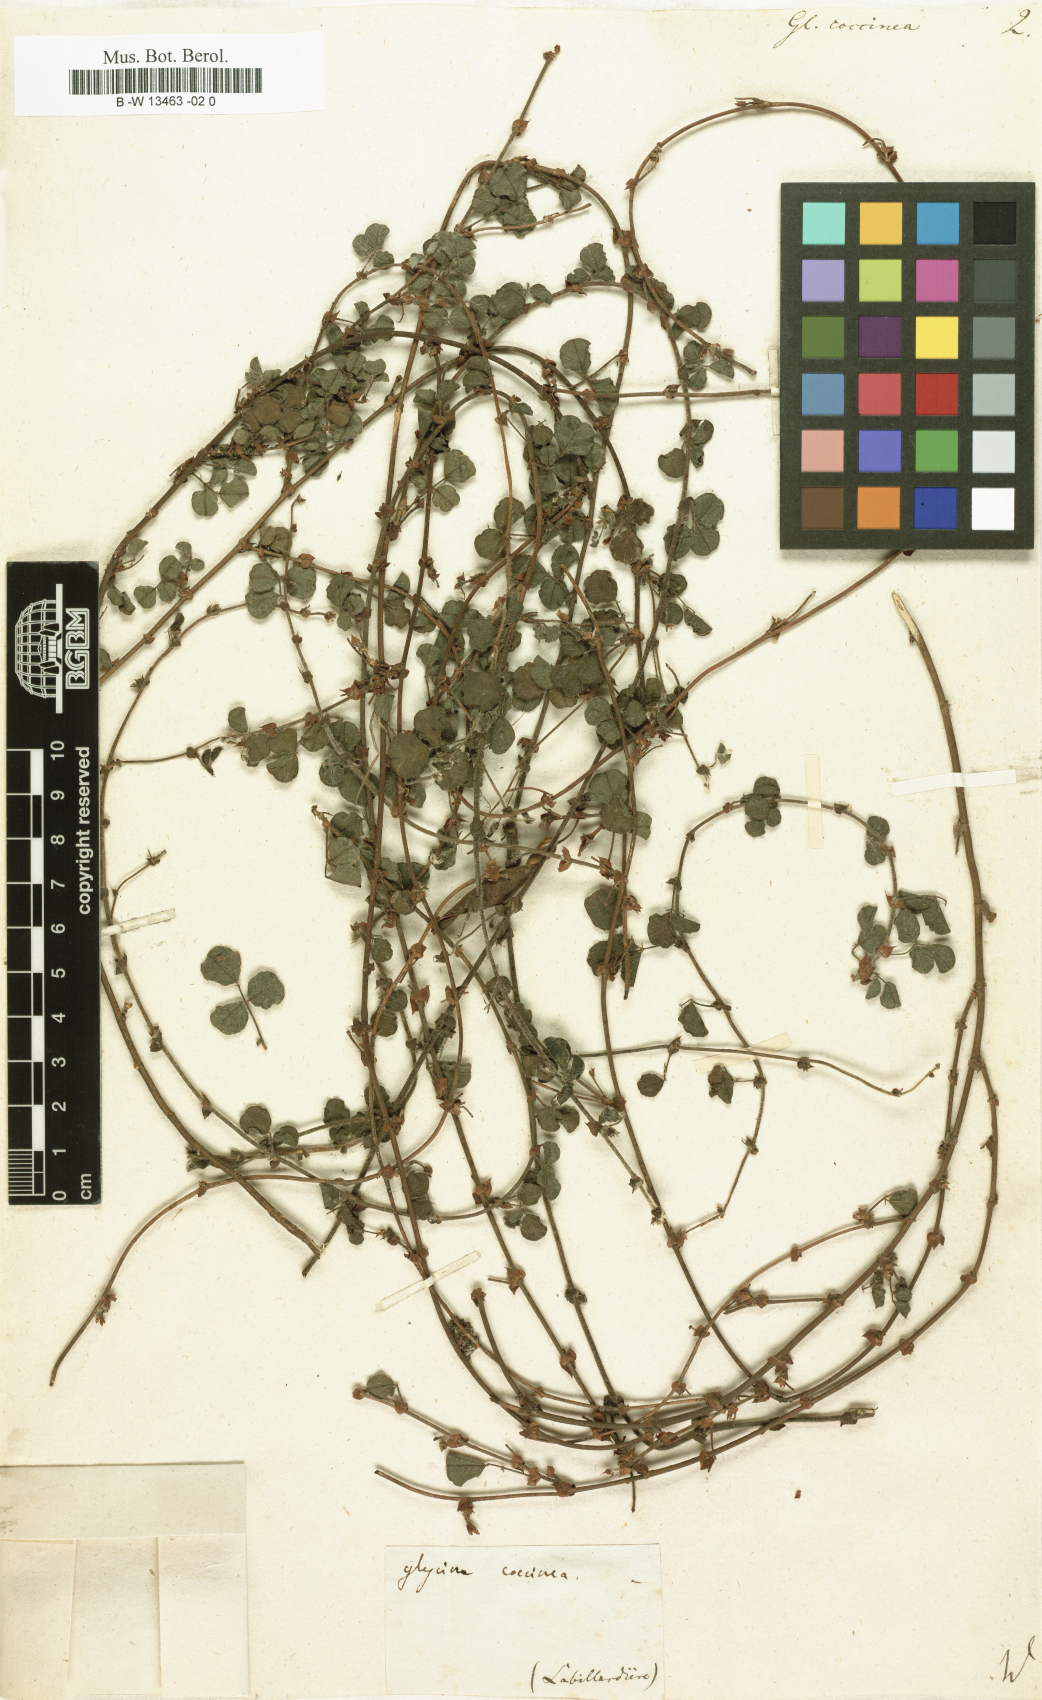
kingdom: Plantae
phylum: Tracheophyta
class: Magnoliopsida
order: Fabales
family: Fabaceae
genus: Kennedia
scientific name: Kennedia coccinea
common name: Coralvine
